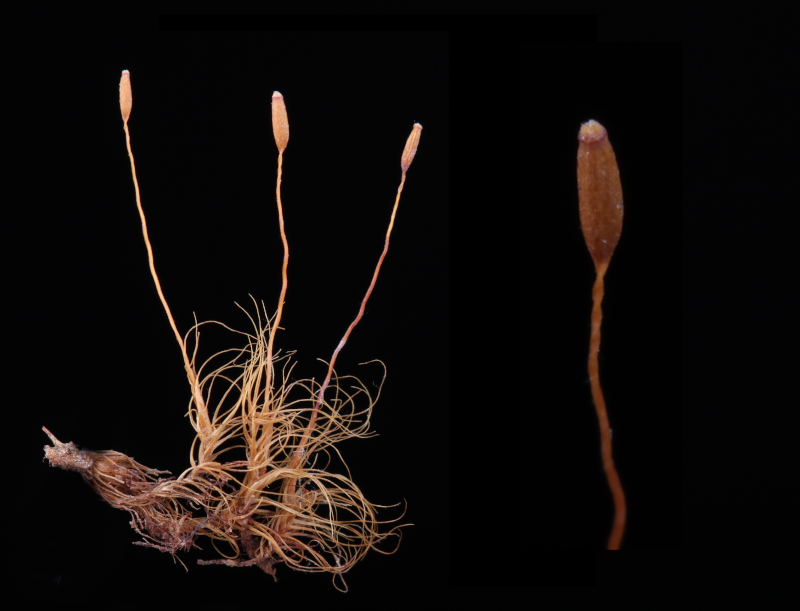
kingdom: Plantae
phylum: Bryophyta
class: Bryopsida
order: Dicranales
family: Leucobryaceae
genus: Dicranodontium
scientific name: Dicranodontium denudatum
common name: Beaked bow moss
